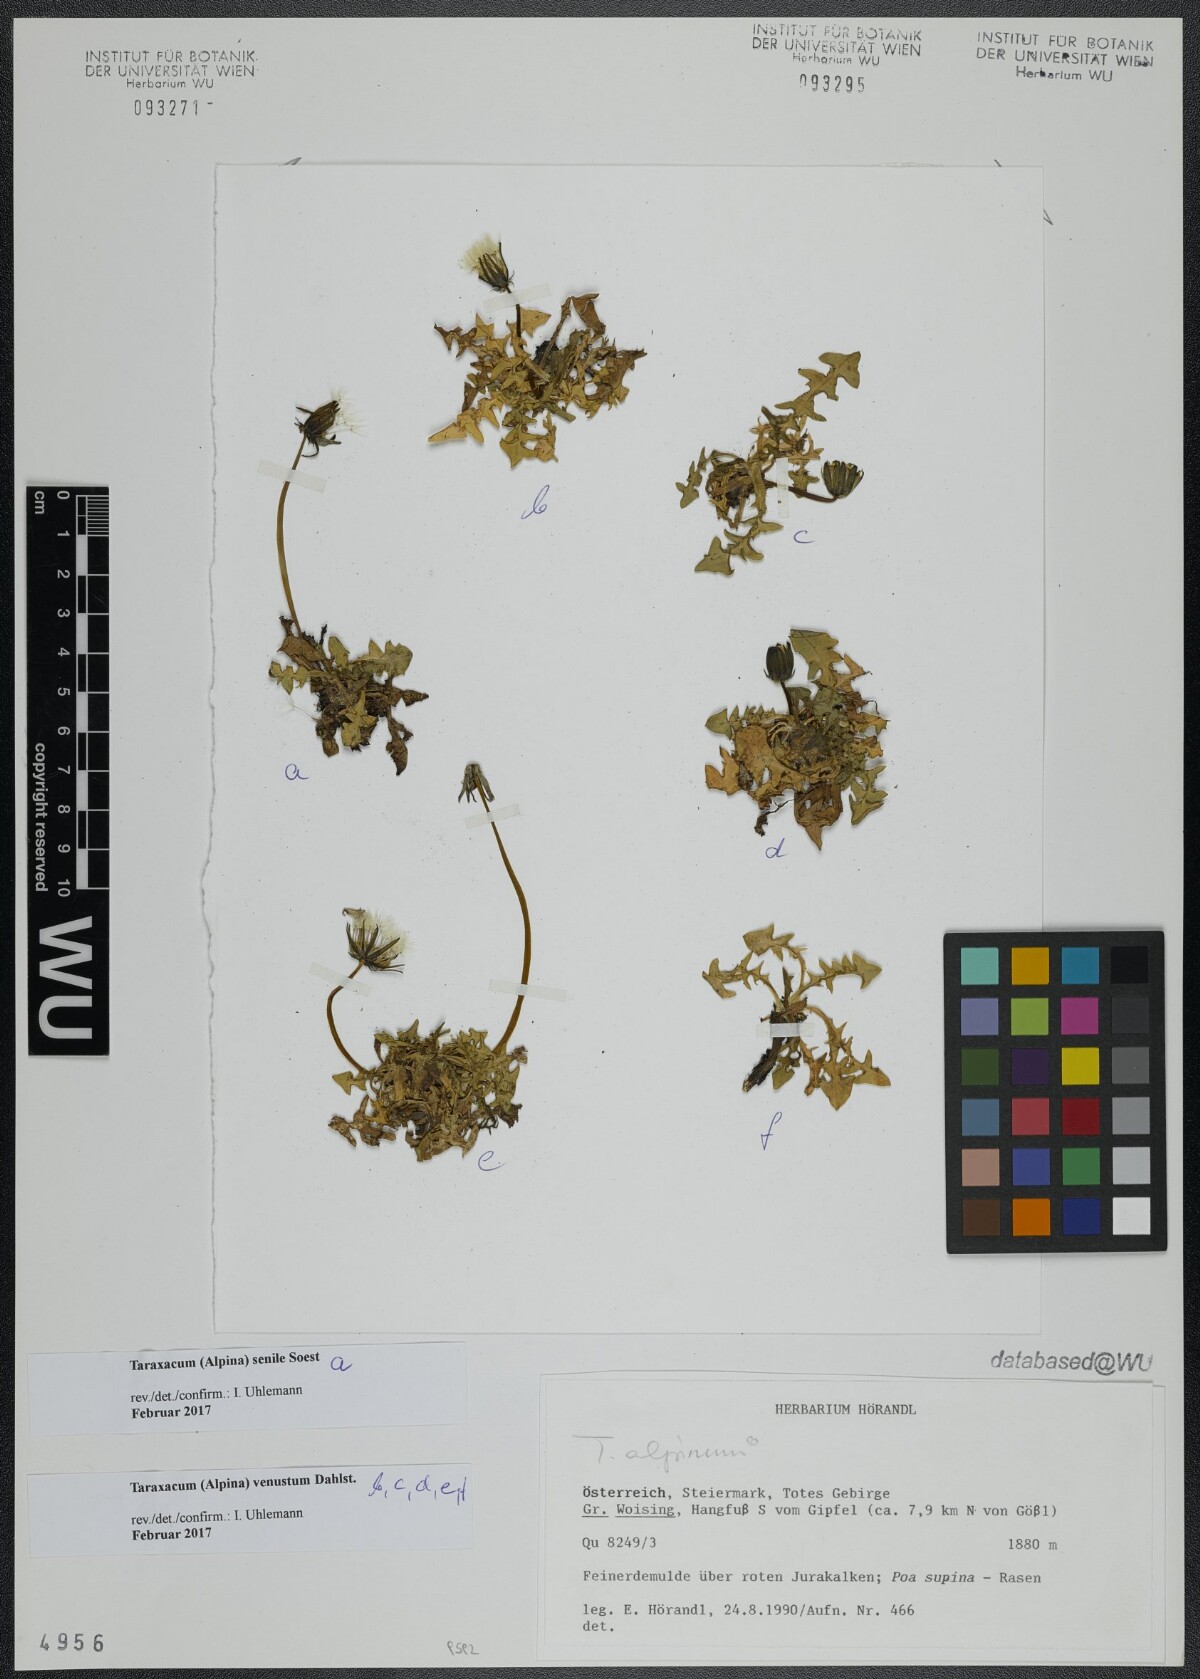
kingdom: Plantae
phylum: Tracheophyta
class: Magnoliopsida
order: Asterales
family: Asteraceae
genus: Taraxacum
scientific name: Taraxacum venustum
